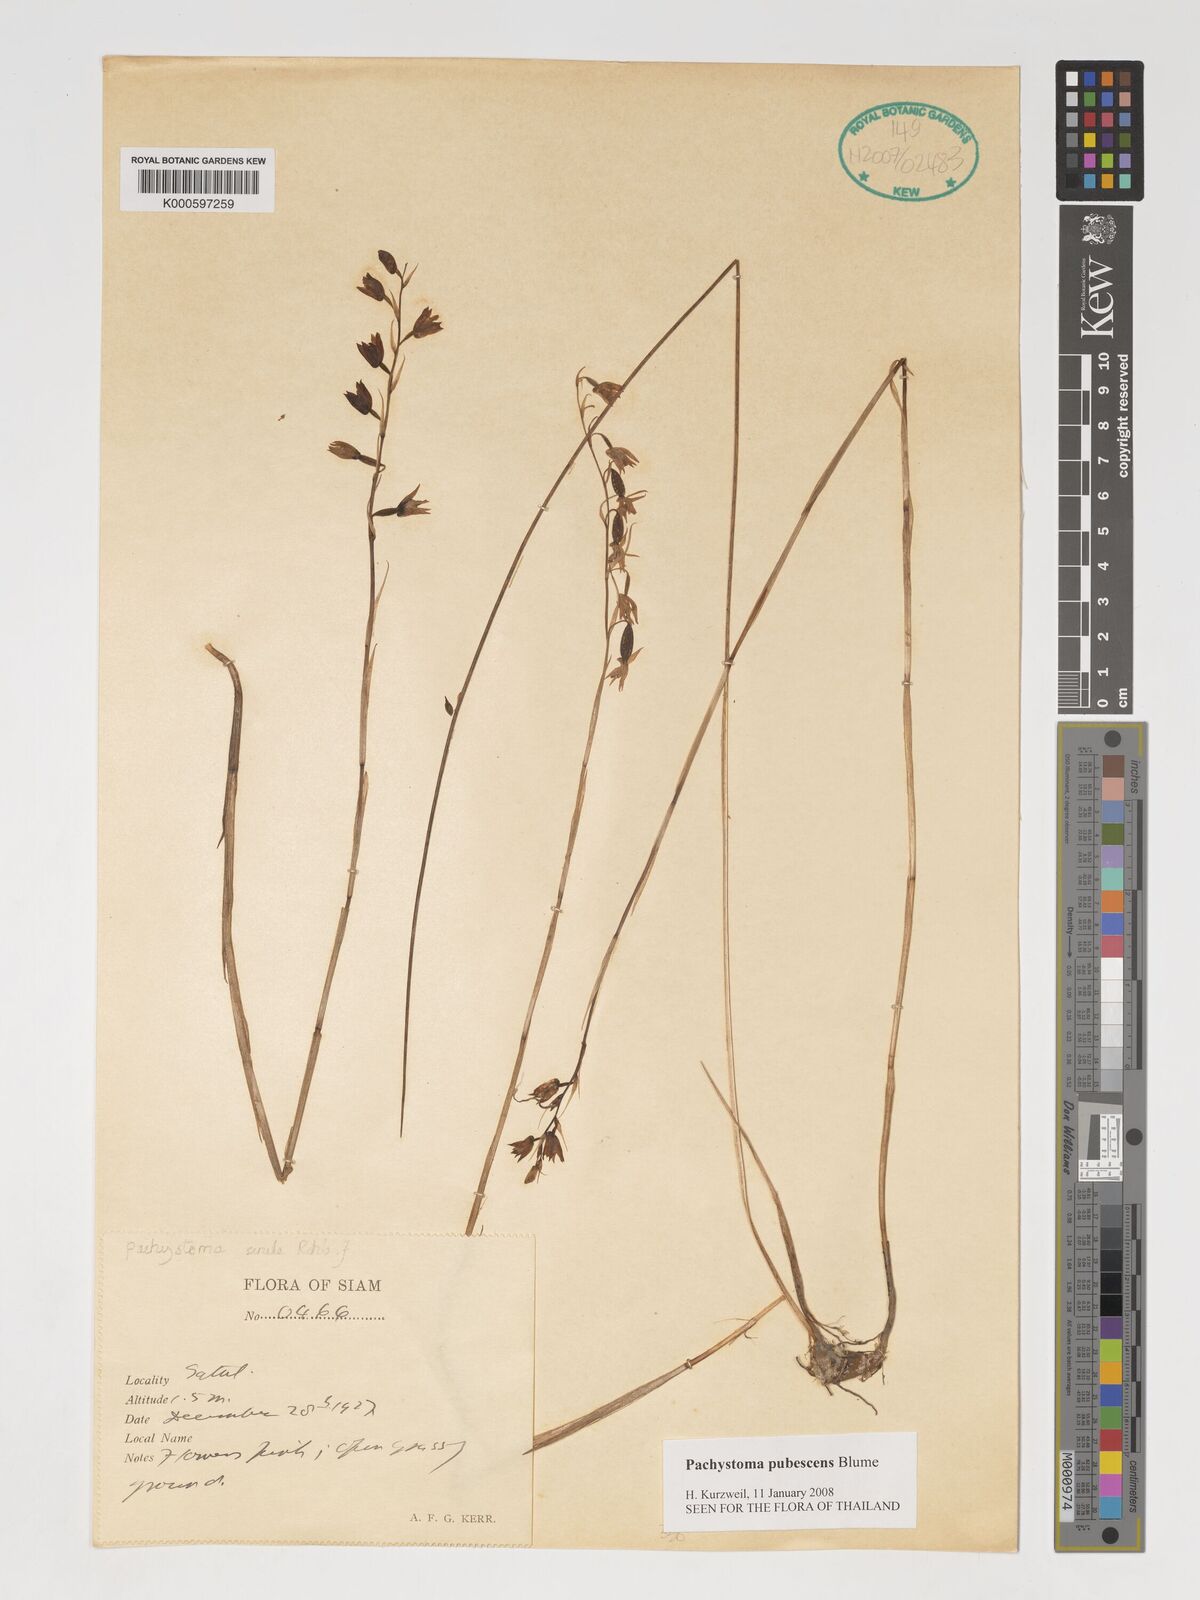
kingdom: Plantae
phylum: Tracheophyta
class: Liliopsida
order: Asparagales
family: Orchidaceae
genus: Pachystoma
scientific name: Pachystoma pubescens
